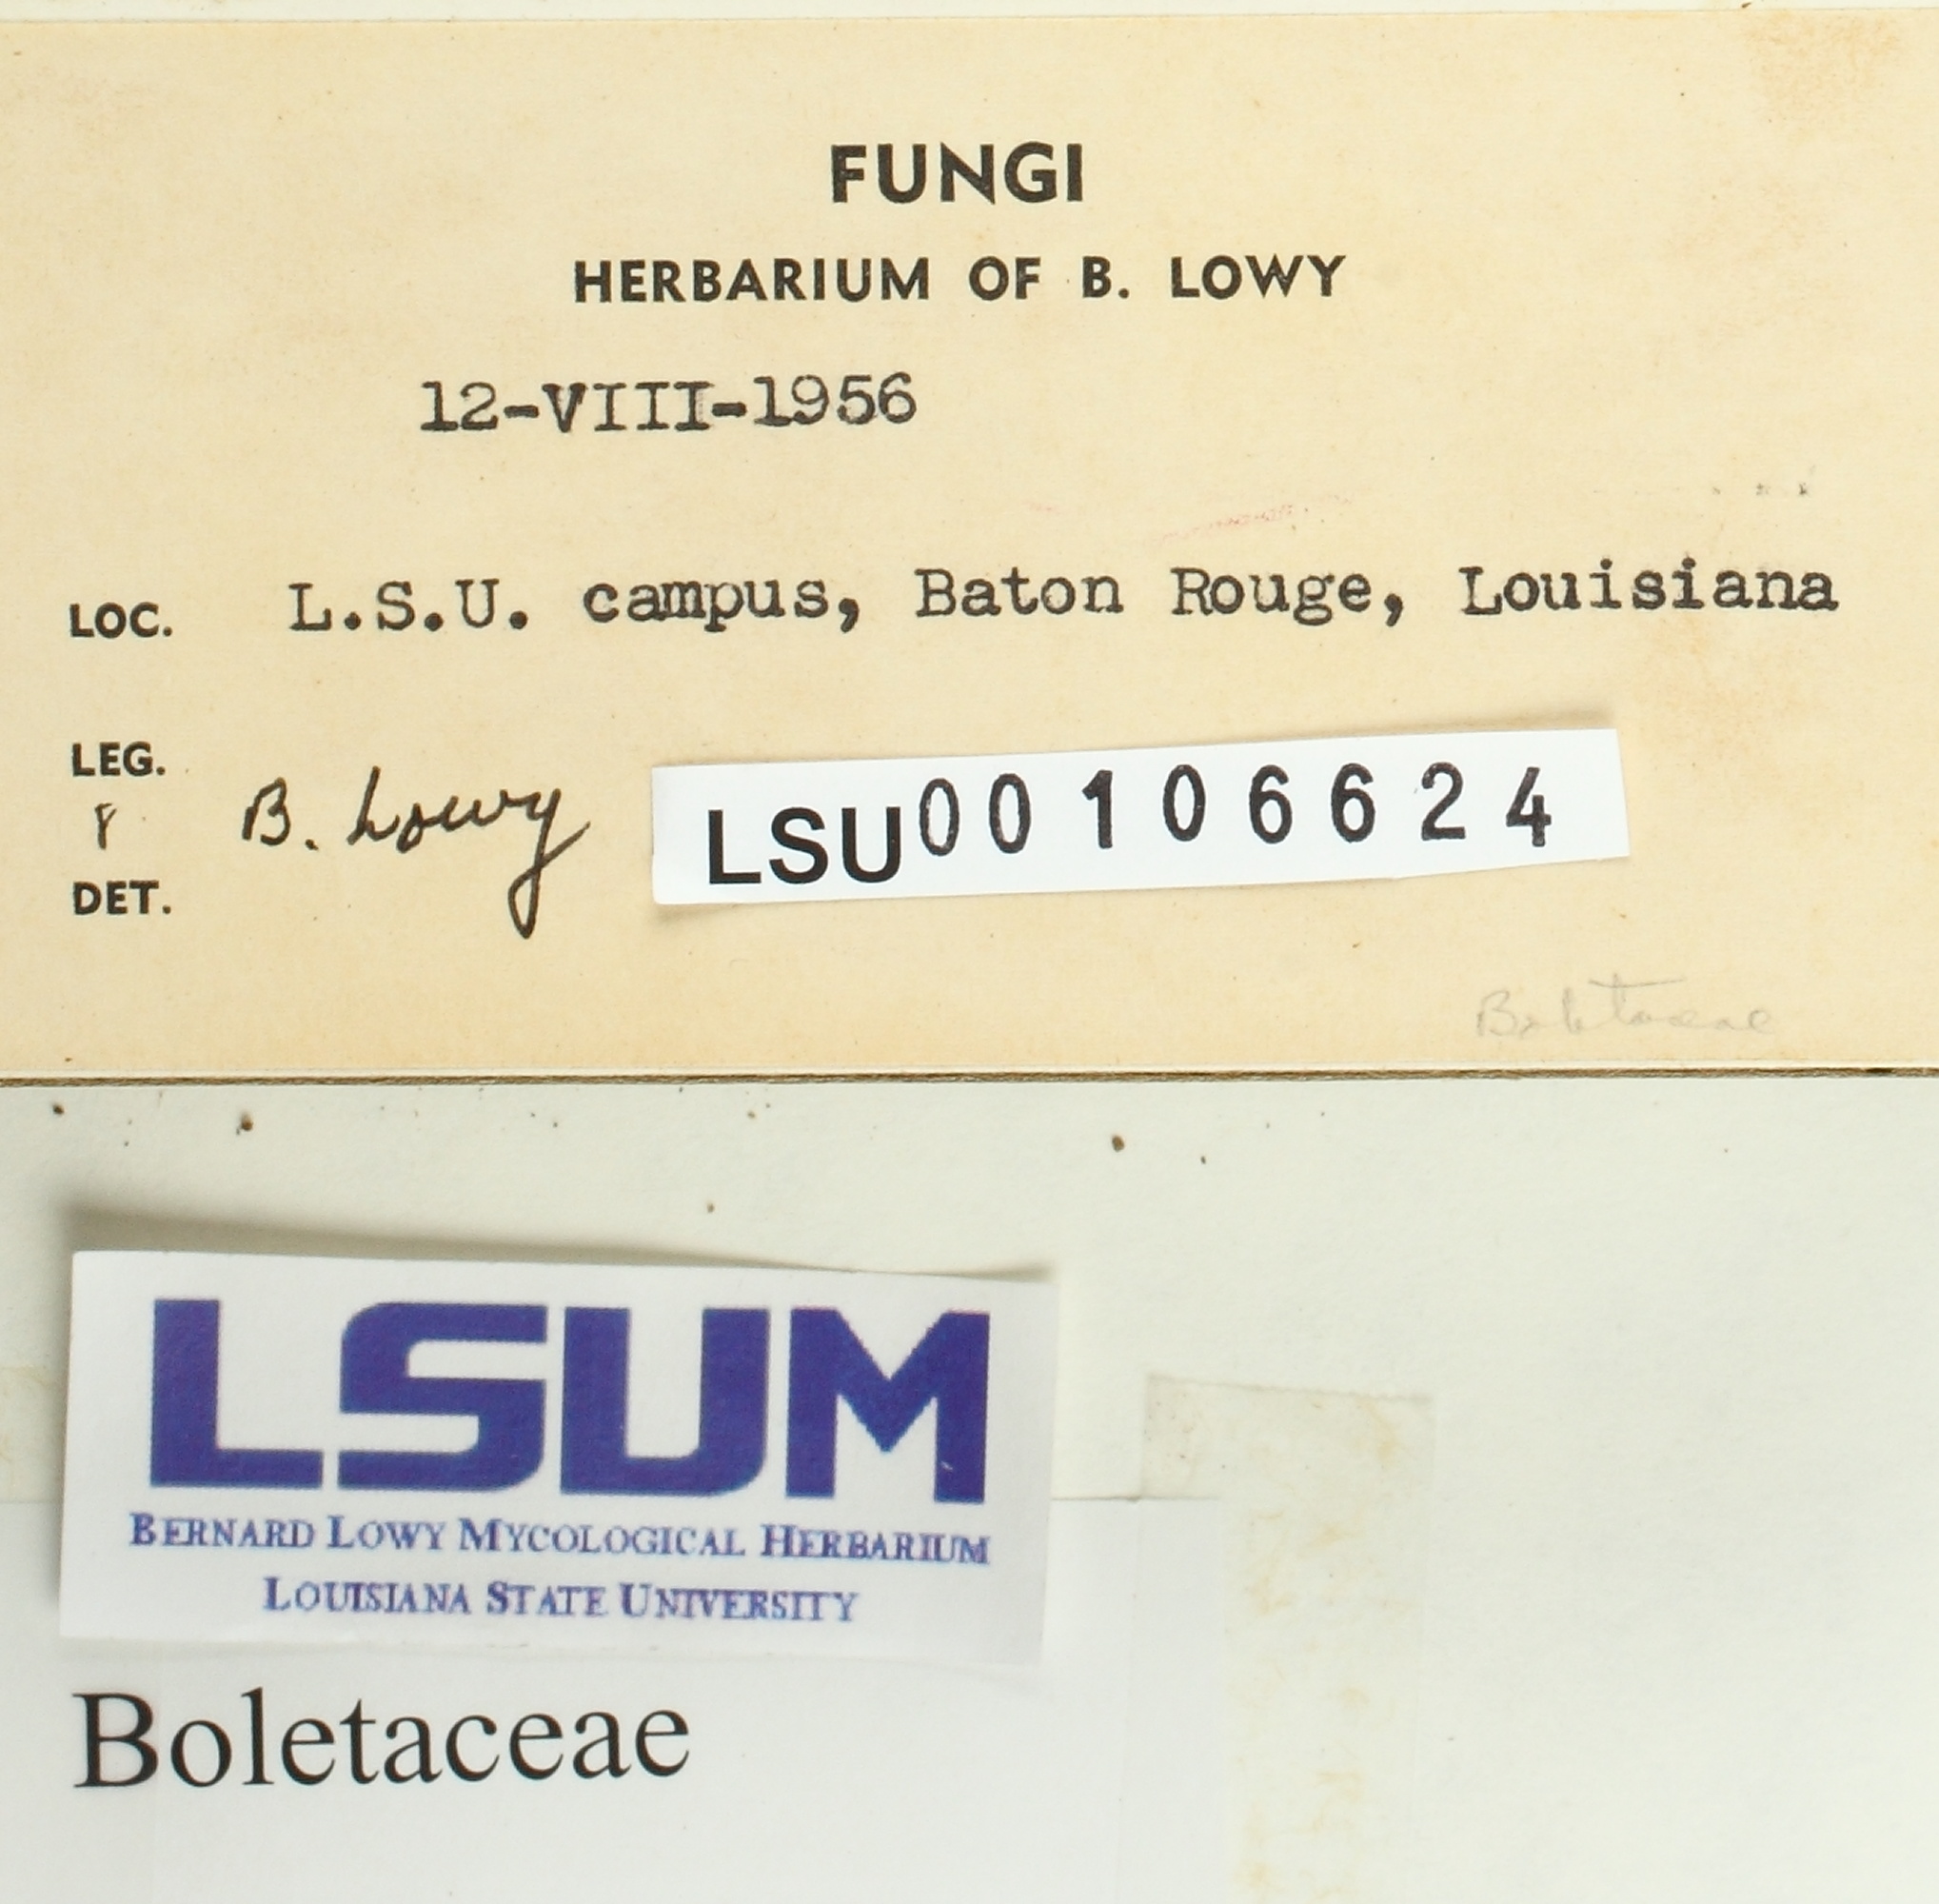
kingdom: Fungi
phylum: Basidiomycota
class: Agaricomycetes
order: Boletales
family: Boletaceae
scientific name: Boletaceae
